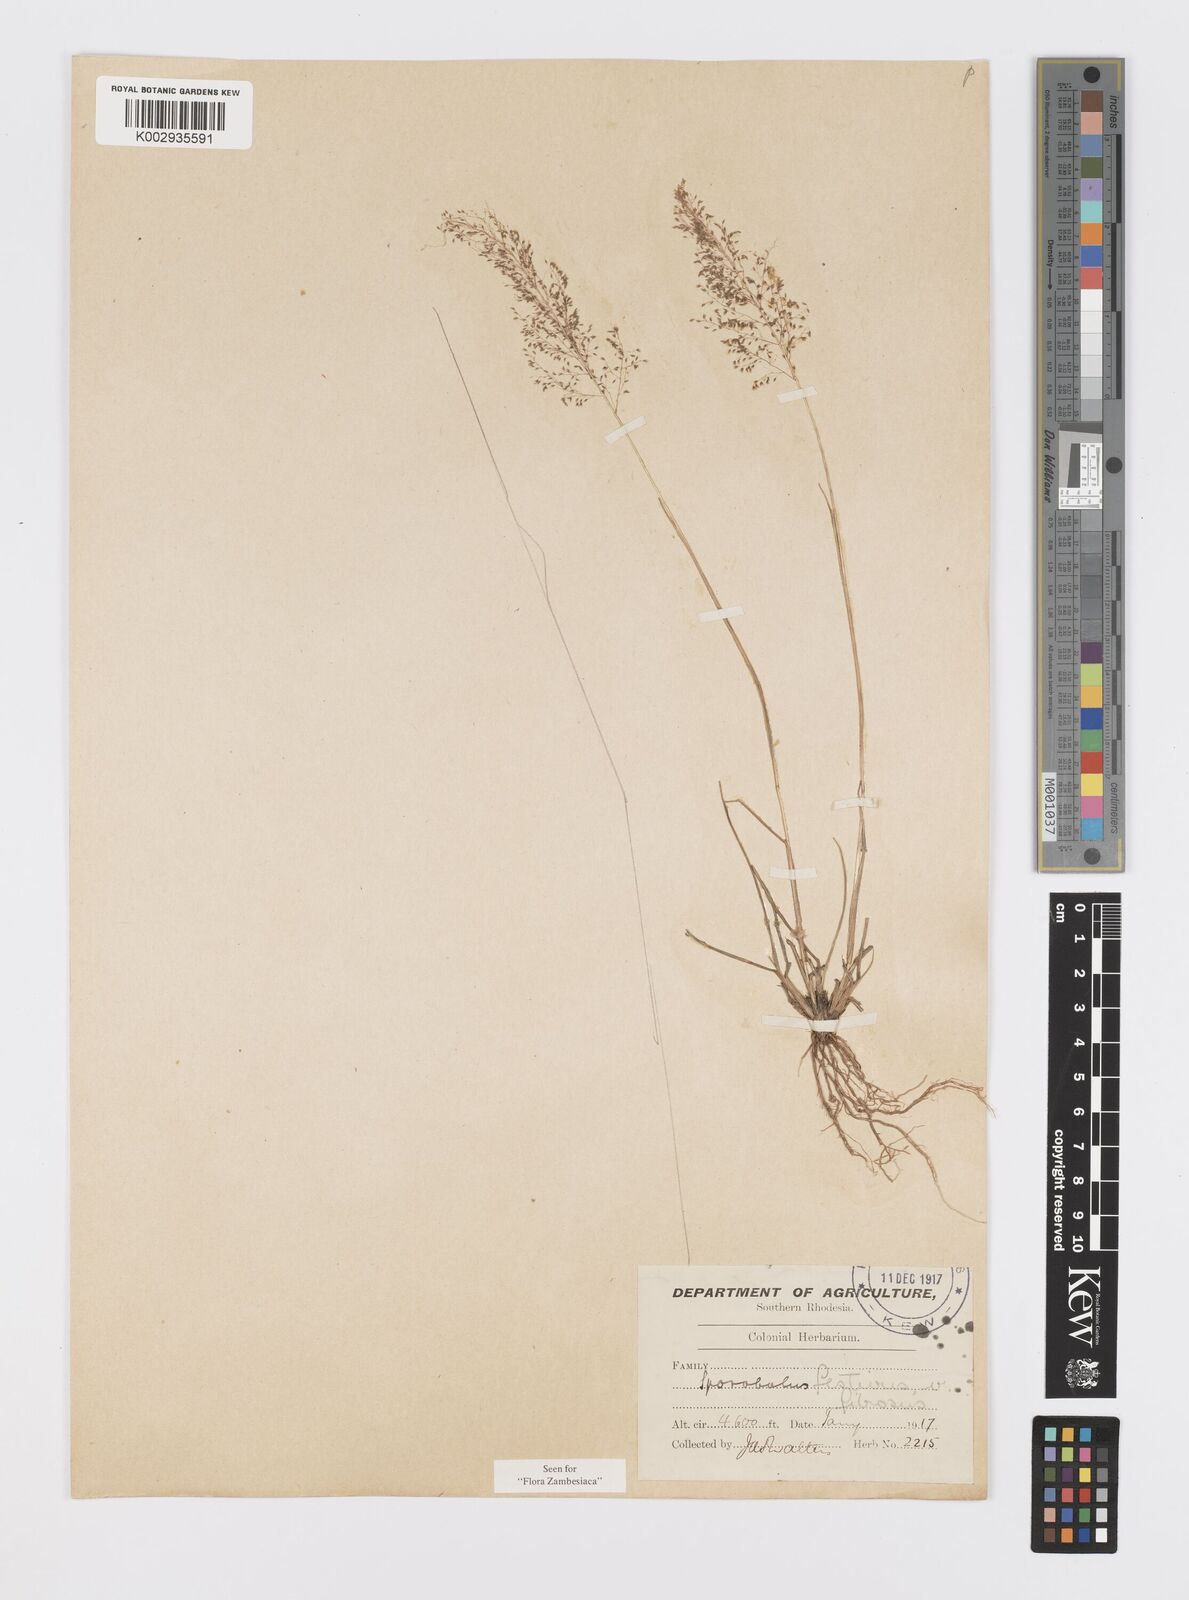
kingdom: Plantae
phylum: Tracheophyta
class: Liliopsida
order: Poales
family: Poaceae
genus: Sporobolus
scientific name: Sporobolus festivus
